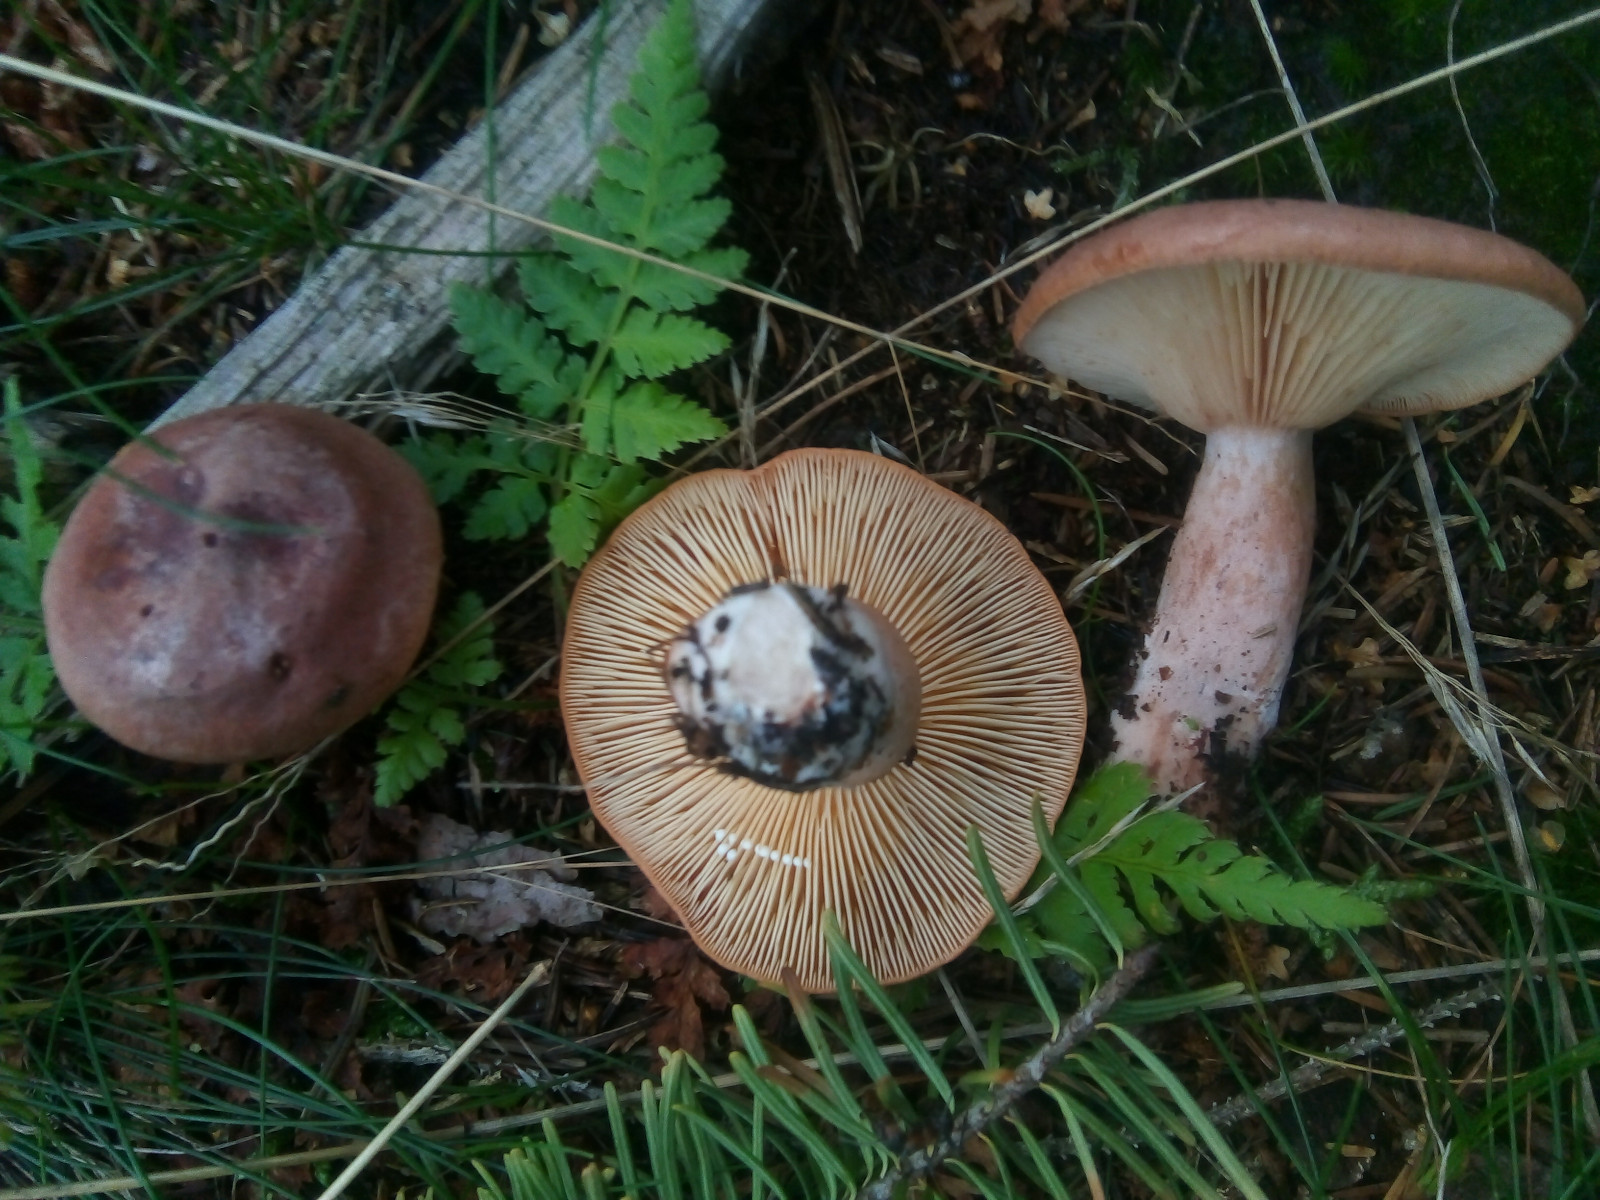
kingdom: Fungi
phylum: Basidiomycota
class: Agaricomycetes
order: Russulales
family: Russulaceae
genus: Lactarius
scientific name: Lactarius rufus
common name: rødbrun mælkehat
